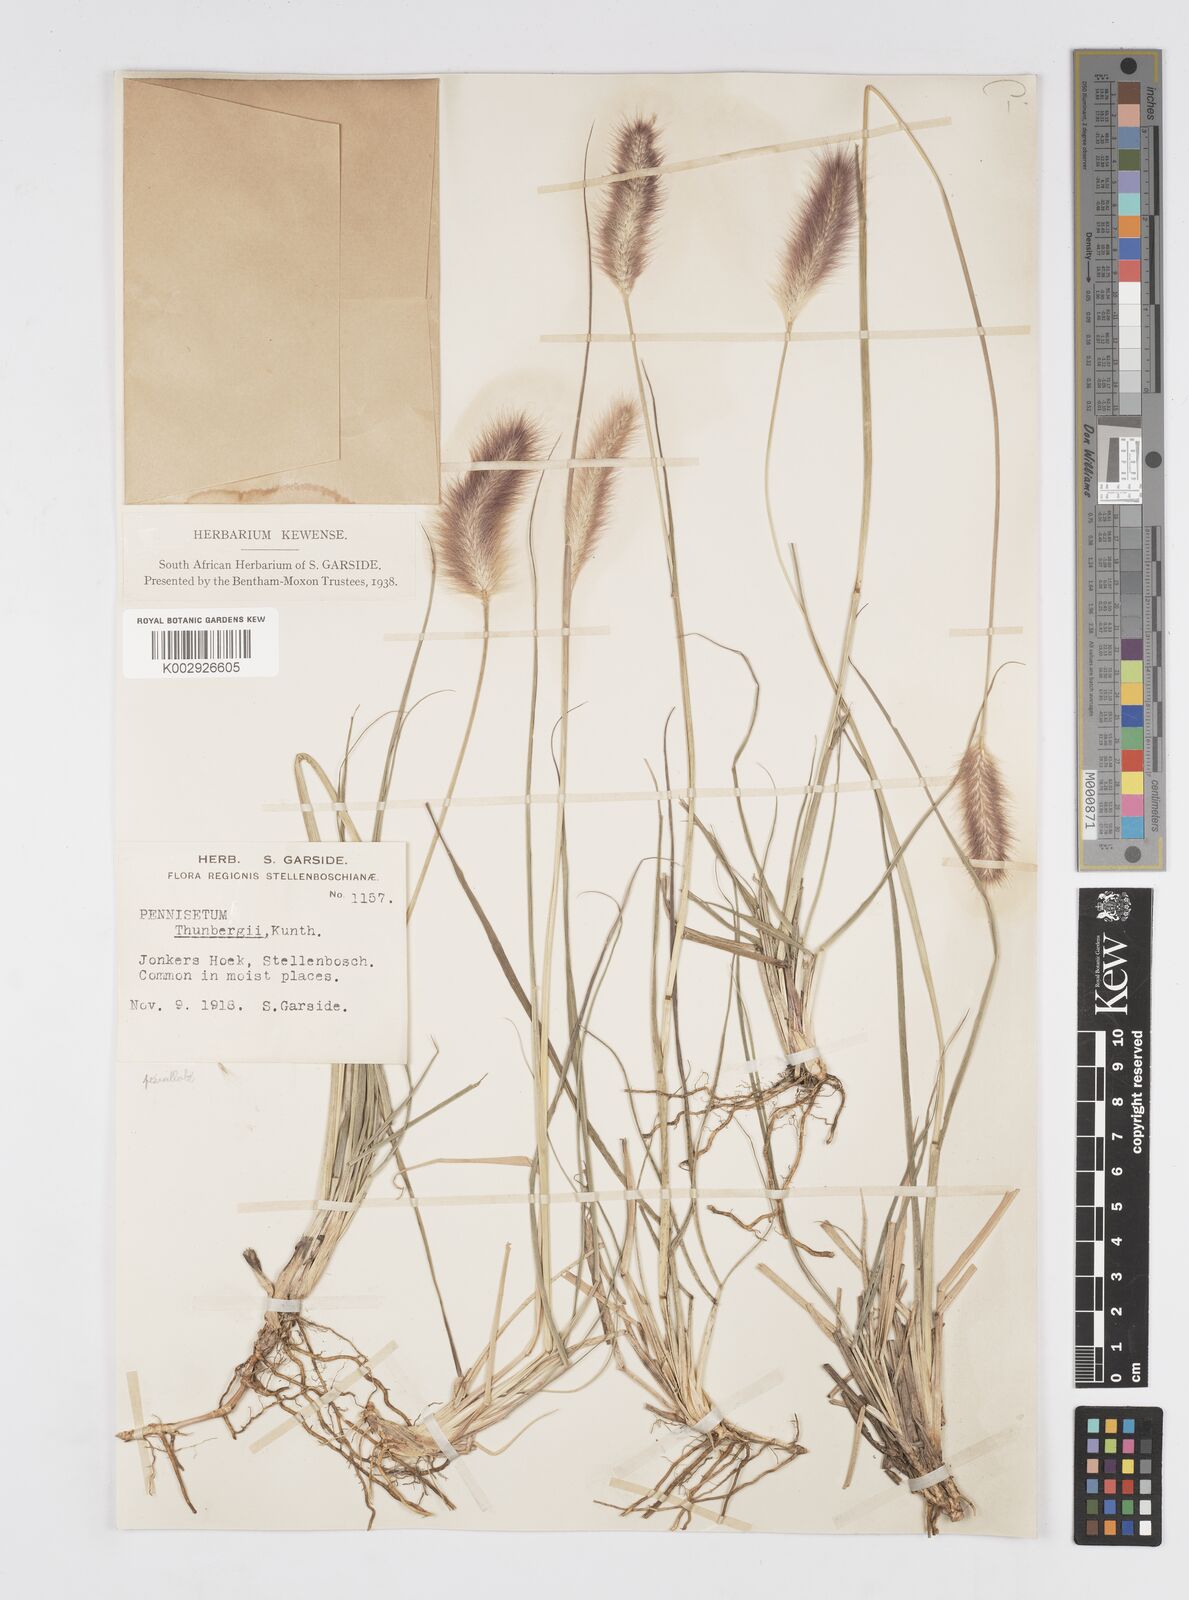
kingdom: Plantae
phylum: Tracheophyta
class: Liliopsida
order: Poales
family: Poaceae
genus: Cenchrus
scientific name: Cenchrus geniculatus
